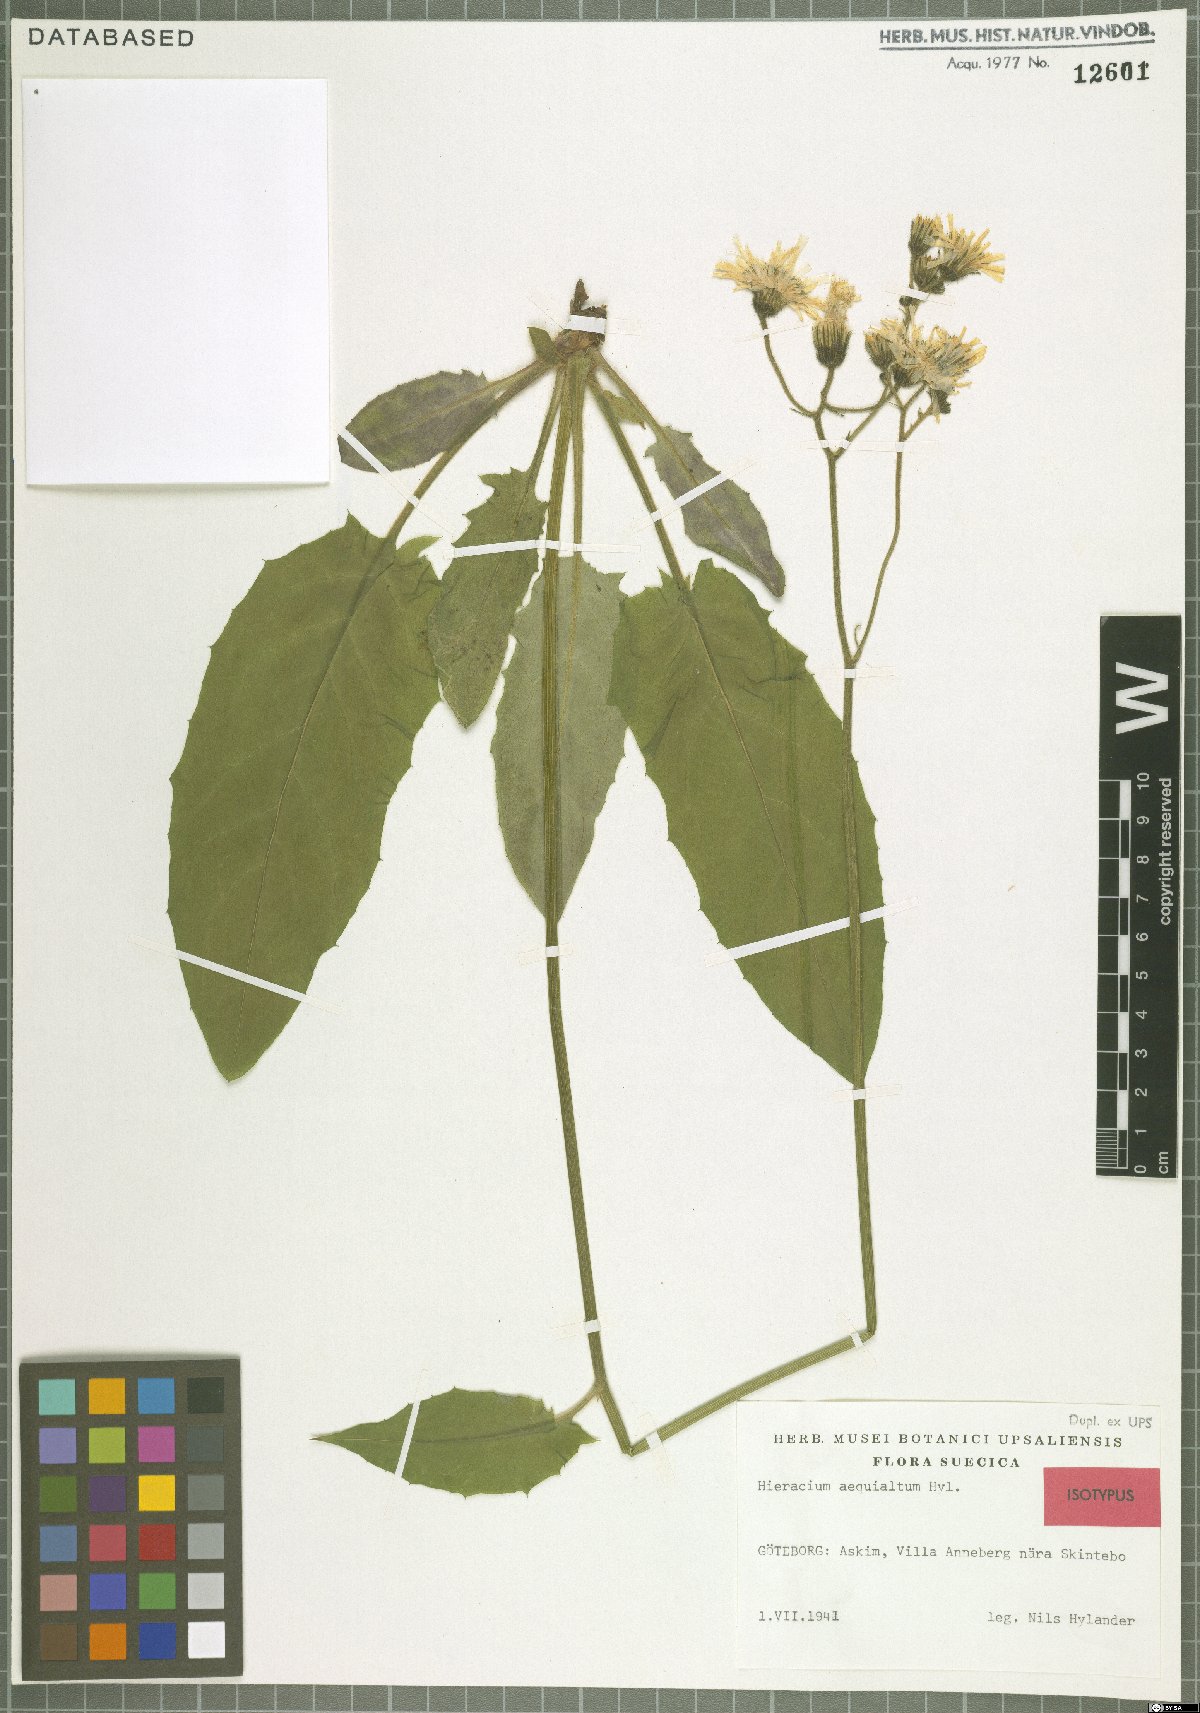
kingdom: Plantae
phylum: Tracheophyta
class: Magnoliopsida
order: Asterales
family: Asteraceae
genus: Hieracium
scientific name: Hieracium aequialtum
